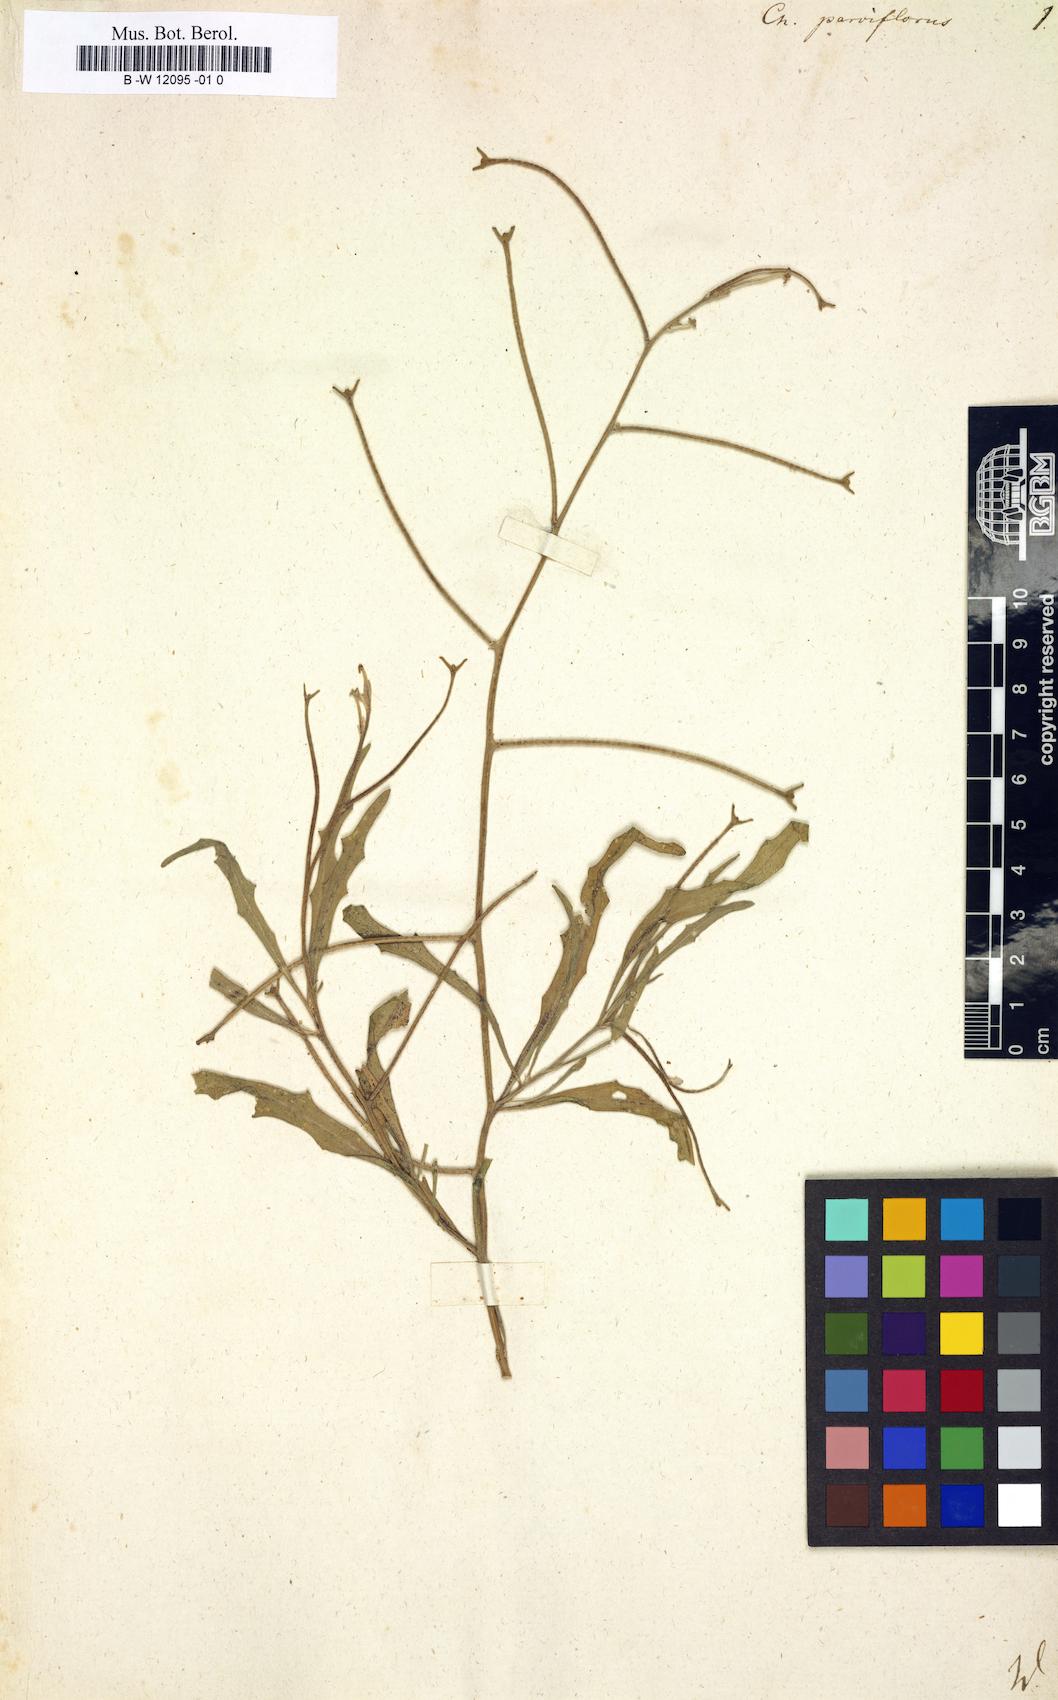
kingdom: Plantae
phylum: Tracheophyta
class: Magnoliopsida
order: Brassicales
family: Brassicaceae
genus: Matthiola
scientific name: Matthiola
